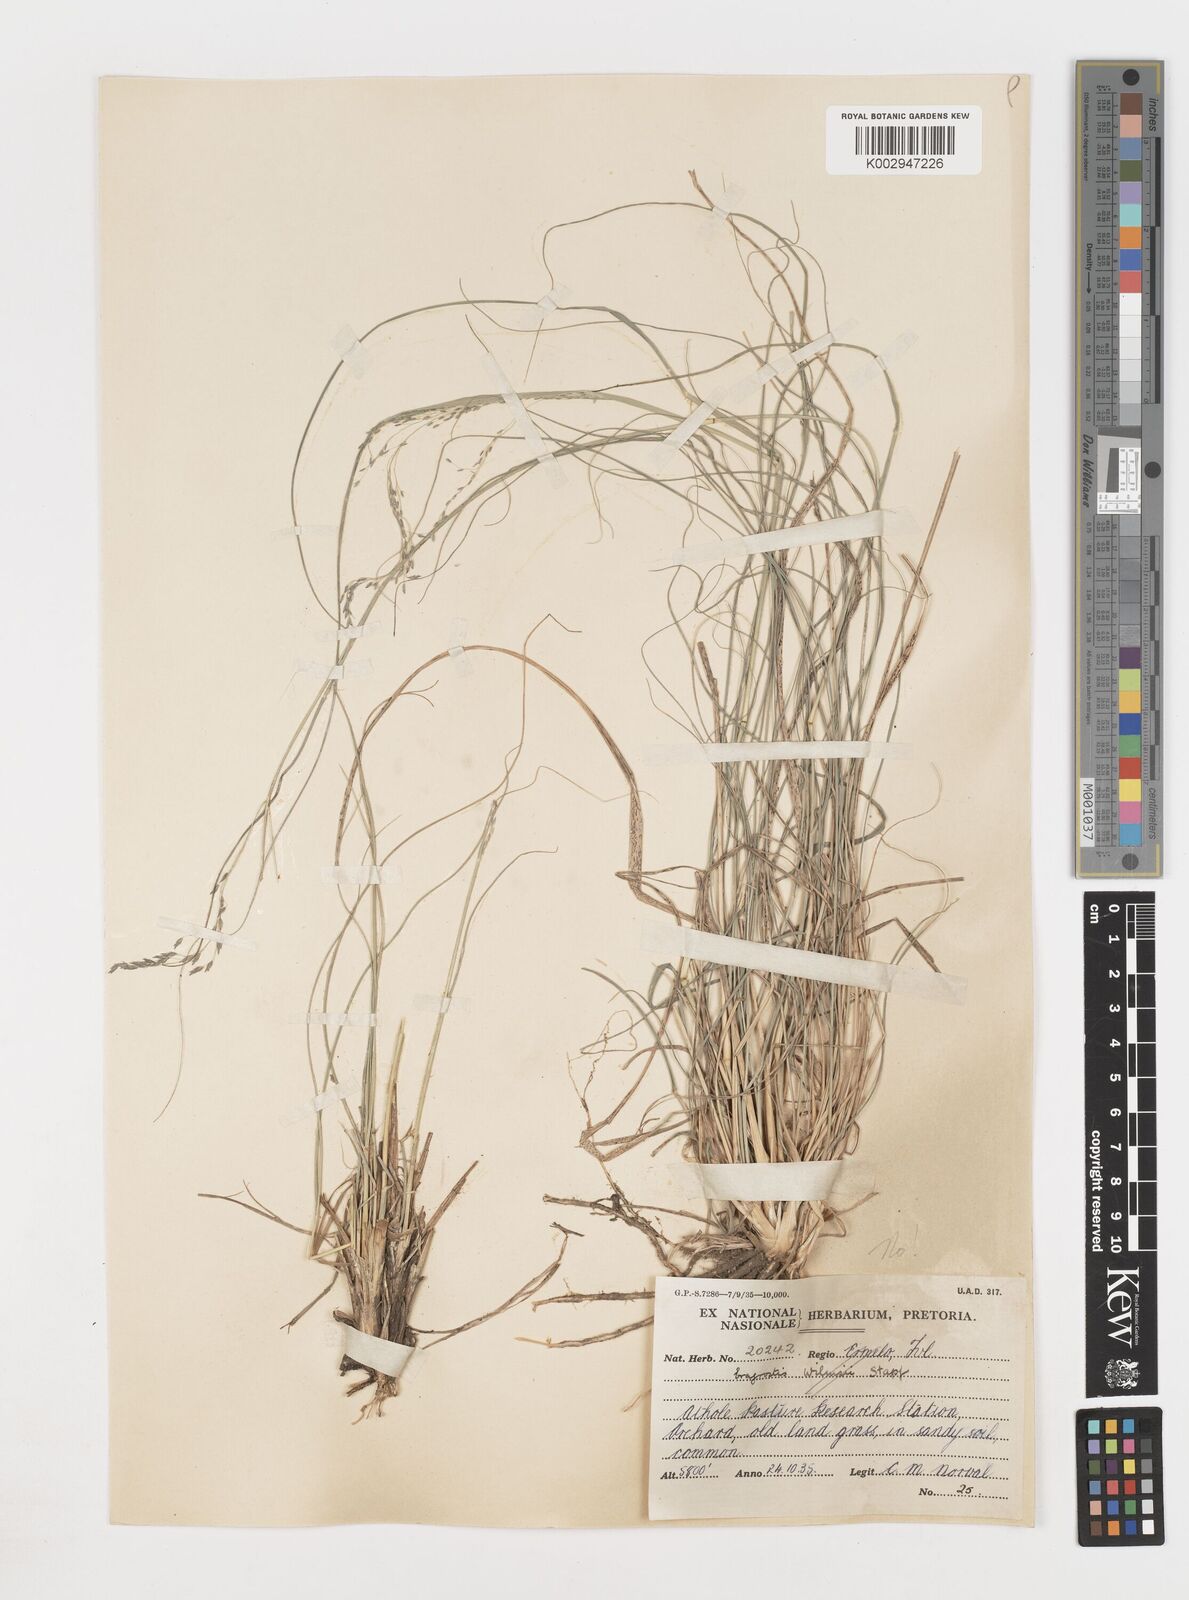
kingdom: Plantae
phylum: Tracheophyta
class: Liliopsida
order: Poales
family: Poaceae
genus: Eragrostis
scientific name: Eragrostis
